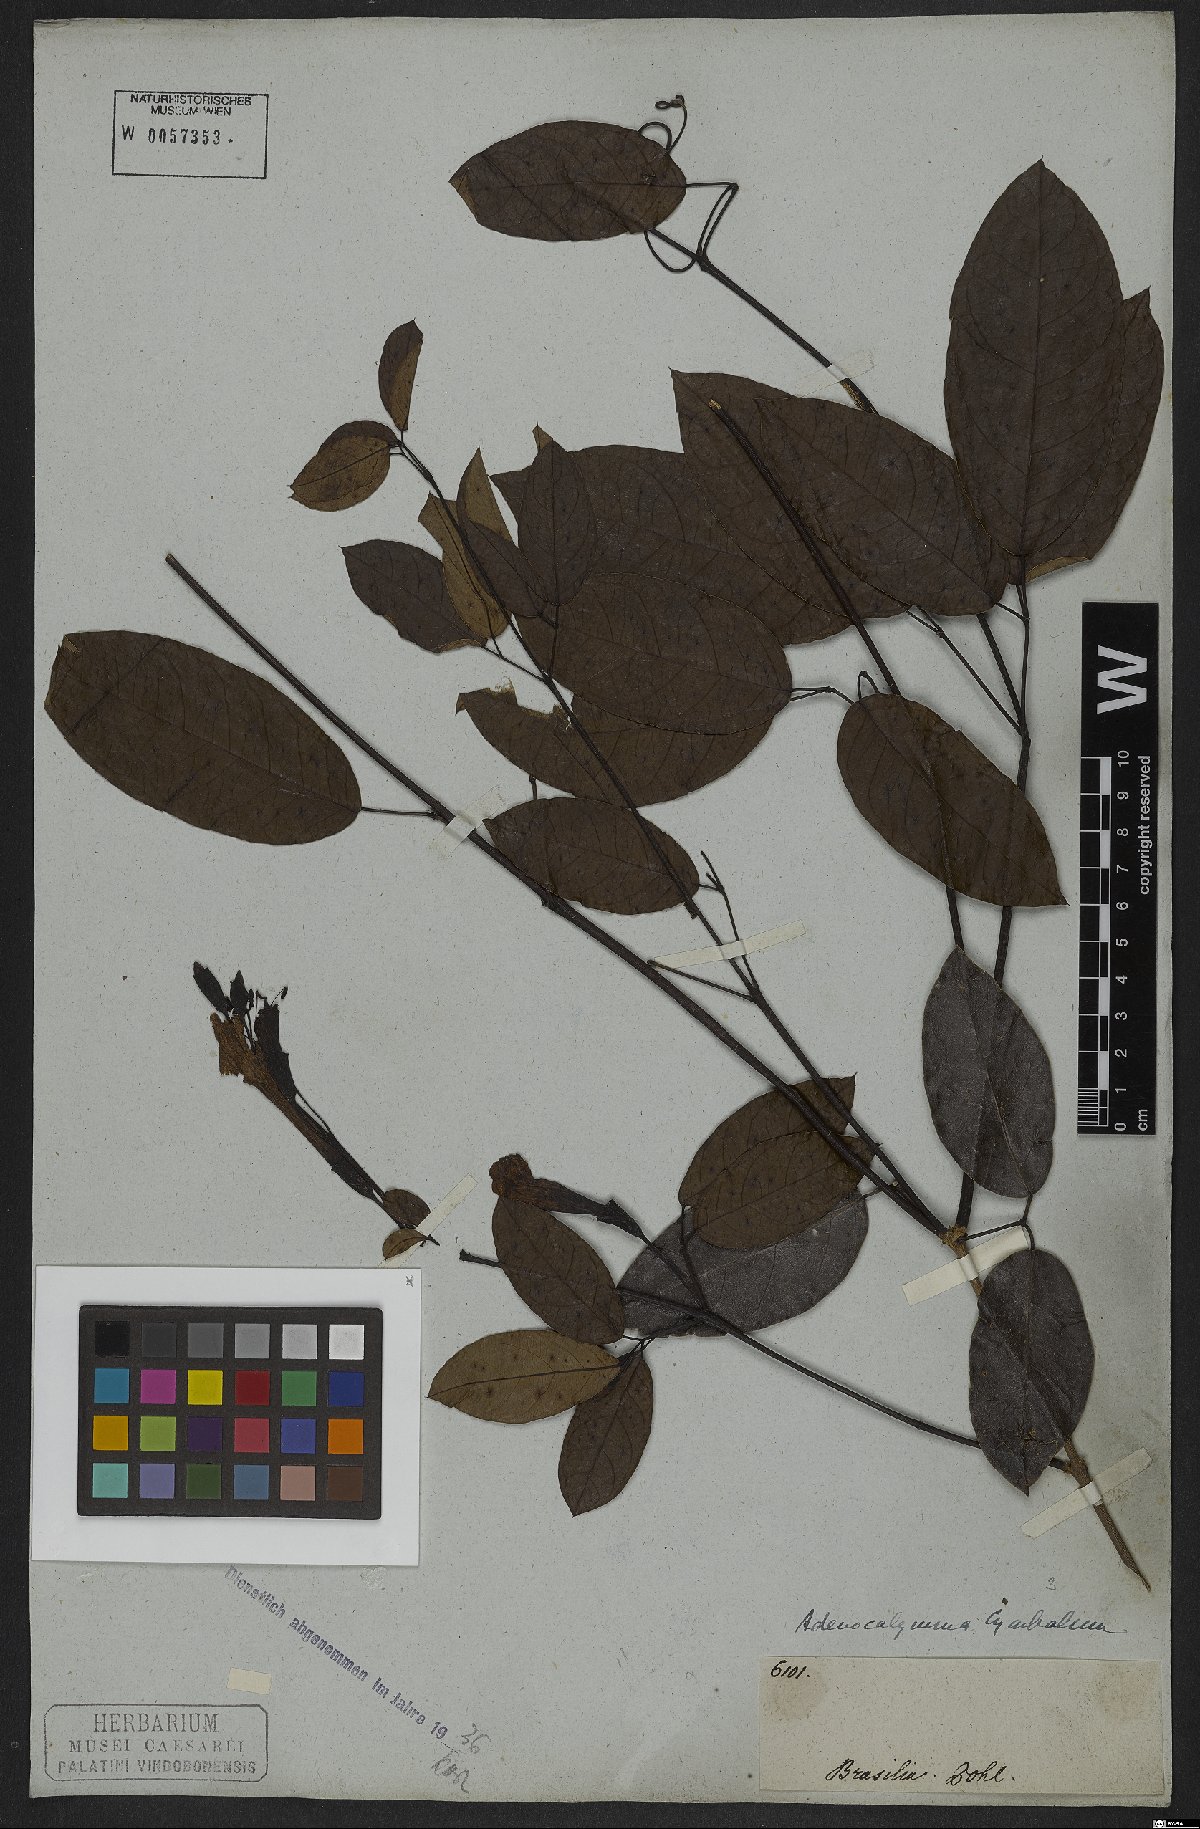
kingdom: Plantae
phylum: Tracheophyta
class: Magnoliopsida
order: Lamiales
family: Bignoniaceae
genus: Adenocalymma
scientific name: Adenocalymma cymbalum
